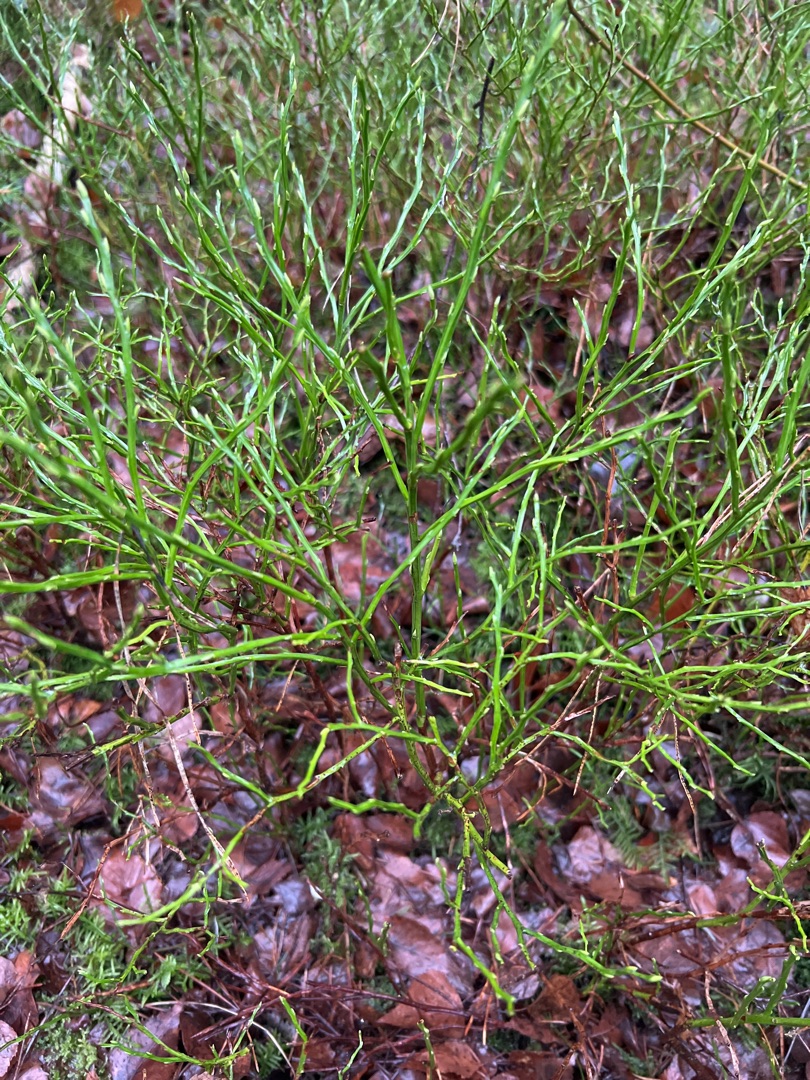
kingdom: Plantae
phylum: Tracheophyta
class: Magnoliopsida
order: Ericales
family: Ericaceae
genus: Vaccinium
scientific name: Vaccinium myrtillus
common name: Blåbær
